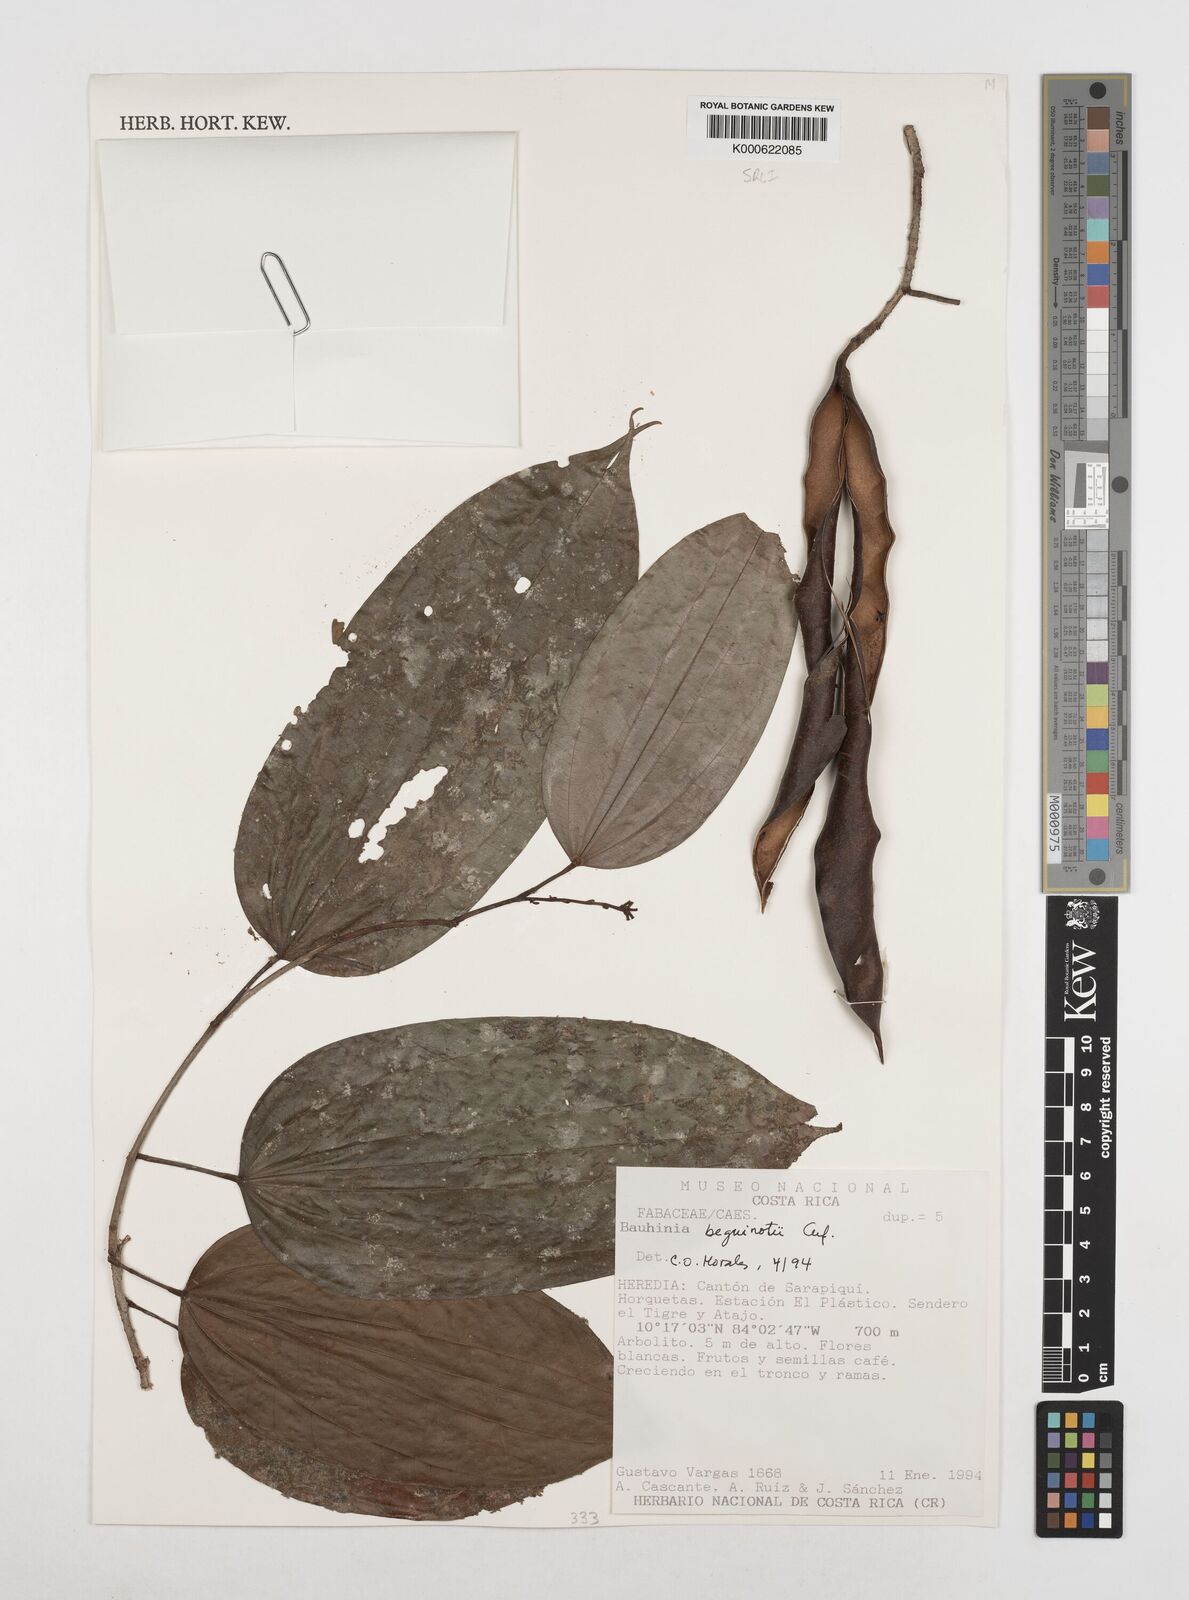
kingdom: Plantae
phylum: Tracheophyta
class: Magnoliopsida
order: Fabales
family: Fabaceae
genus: Bauhinia
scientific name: Bauhinia beguinotii
